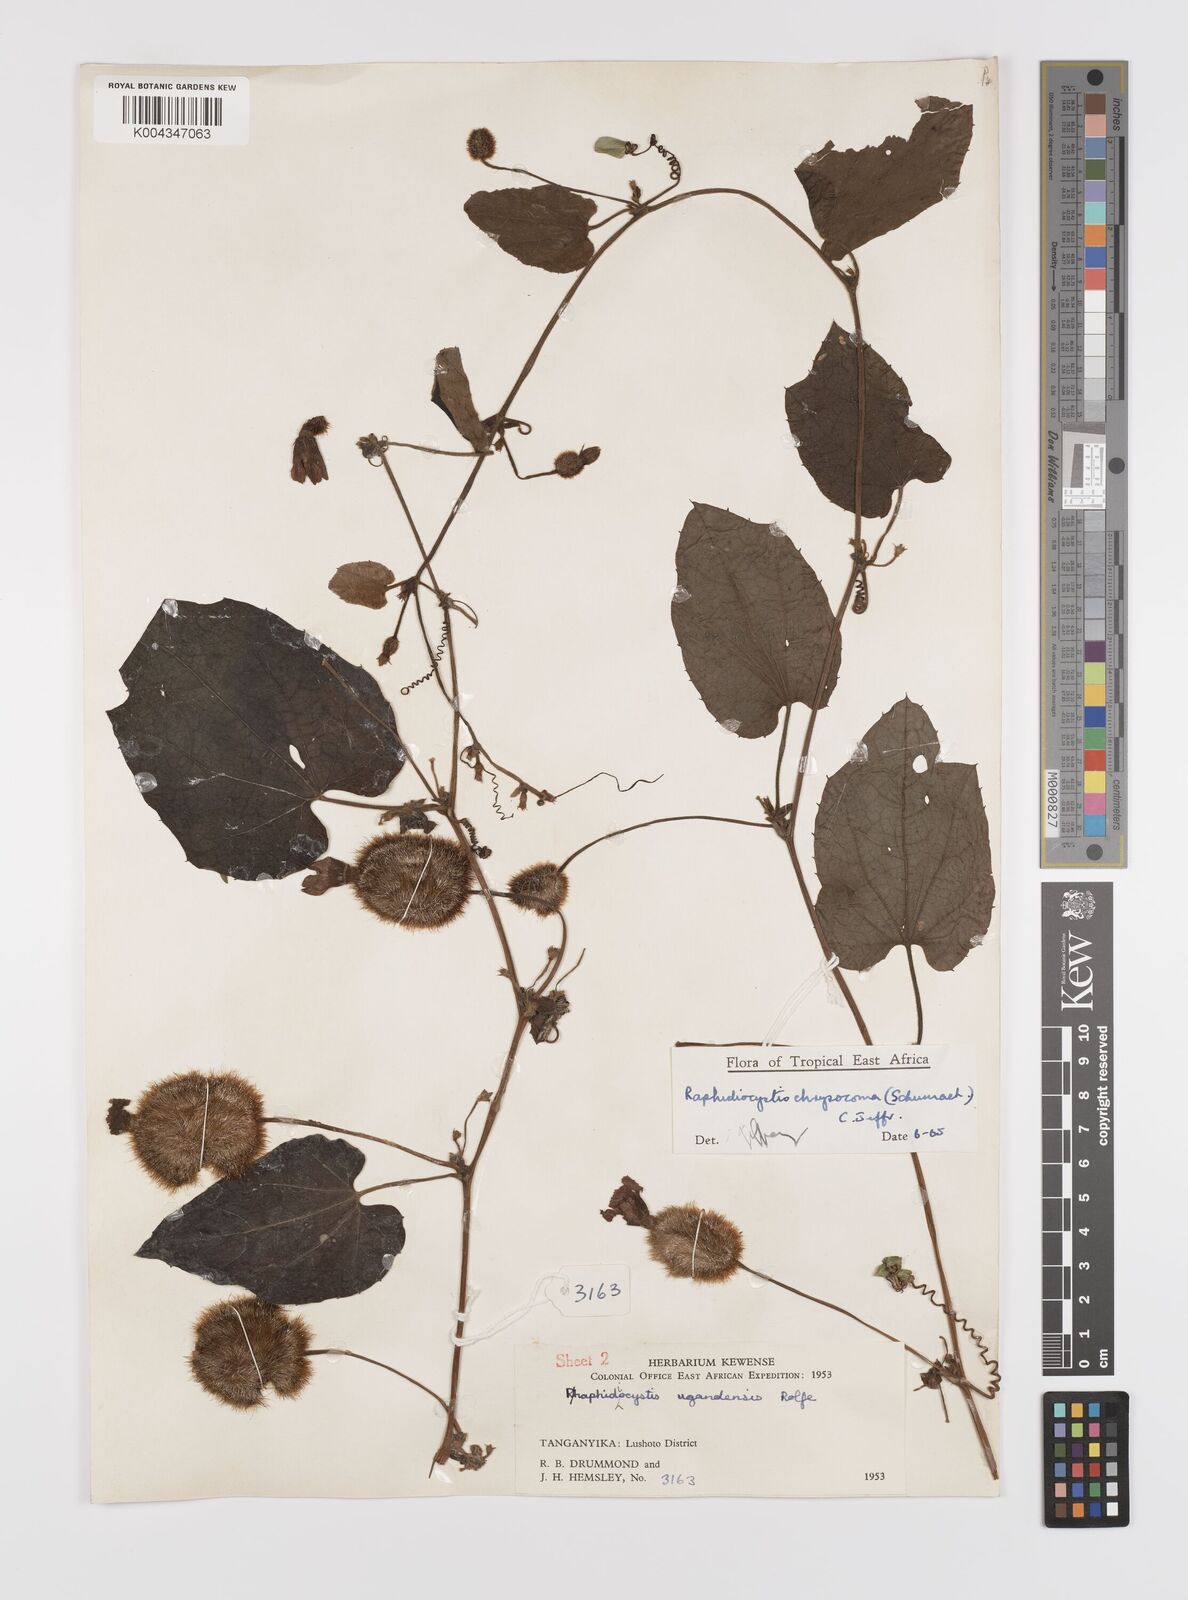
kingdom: Plantae
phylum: Tracheophyta
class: Magnoliopsida
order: Cucurbitales
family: Cucurbitaceae
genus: Raphidiocystis
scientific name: Raphidiocystis chrysocoma
